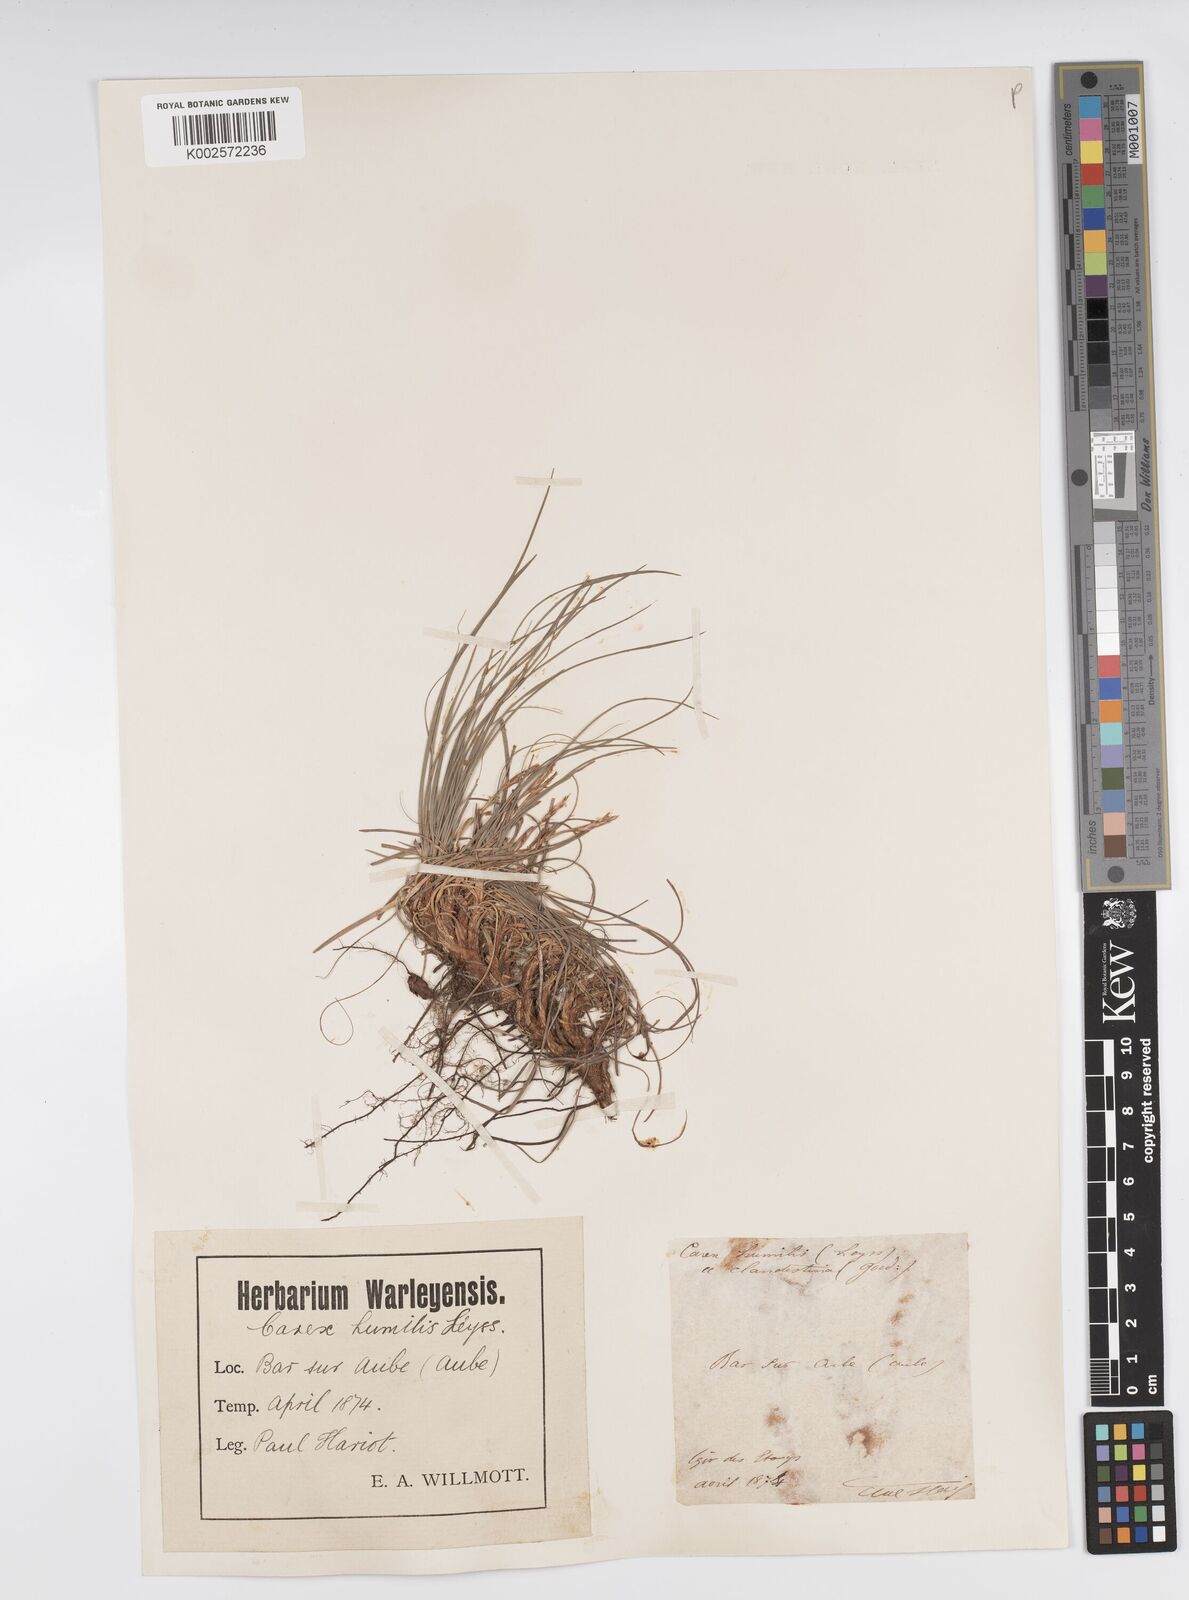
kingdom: Plantae
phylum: Tracheophyta
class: Liliopsida
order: Poales
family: Cyperaceae
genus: Carex
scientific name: Carex humilis
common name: Dwarf sedge
